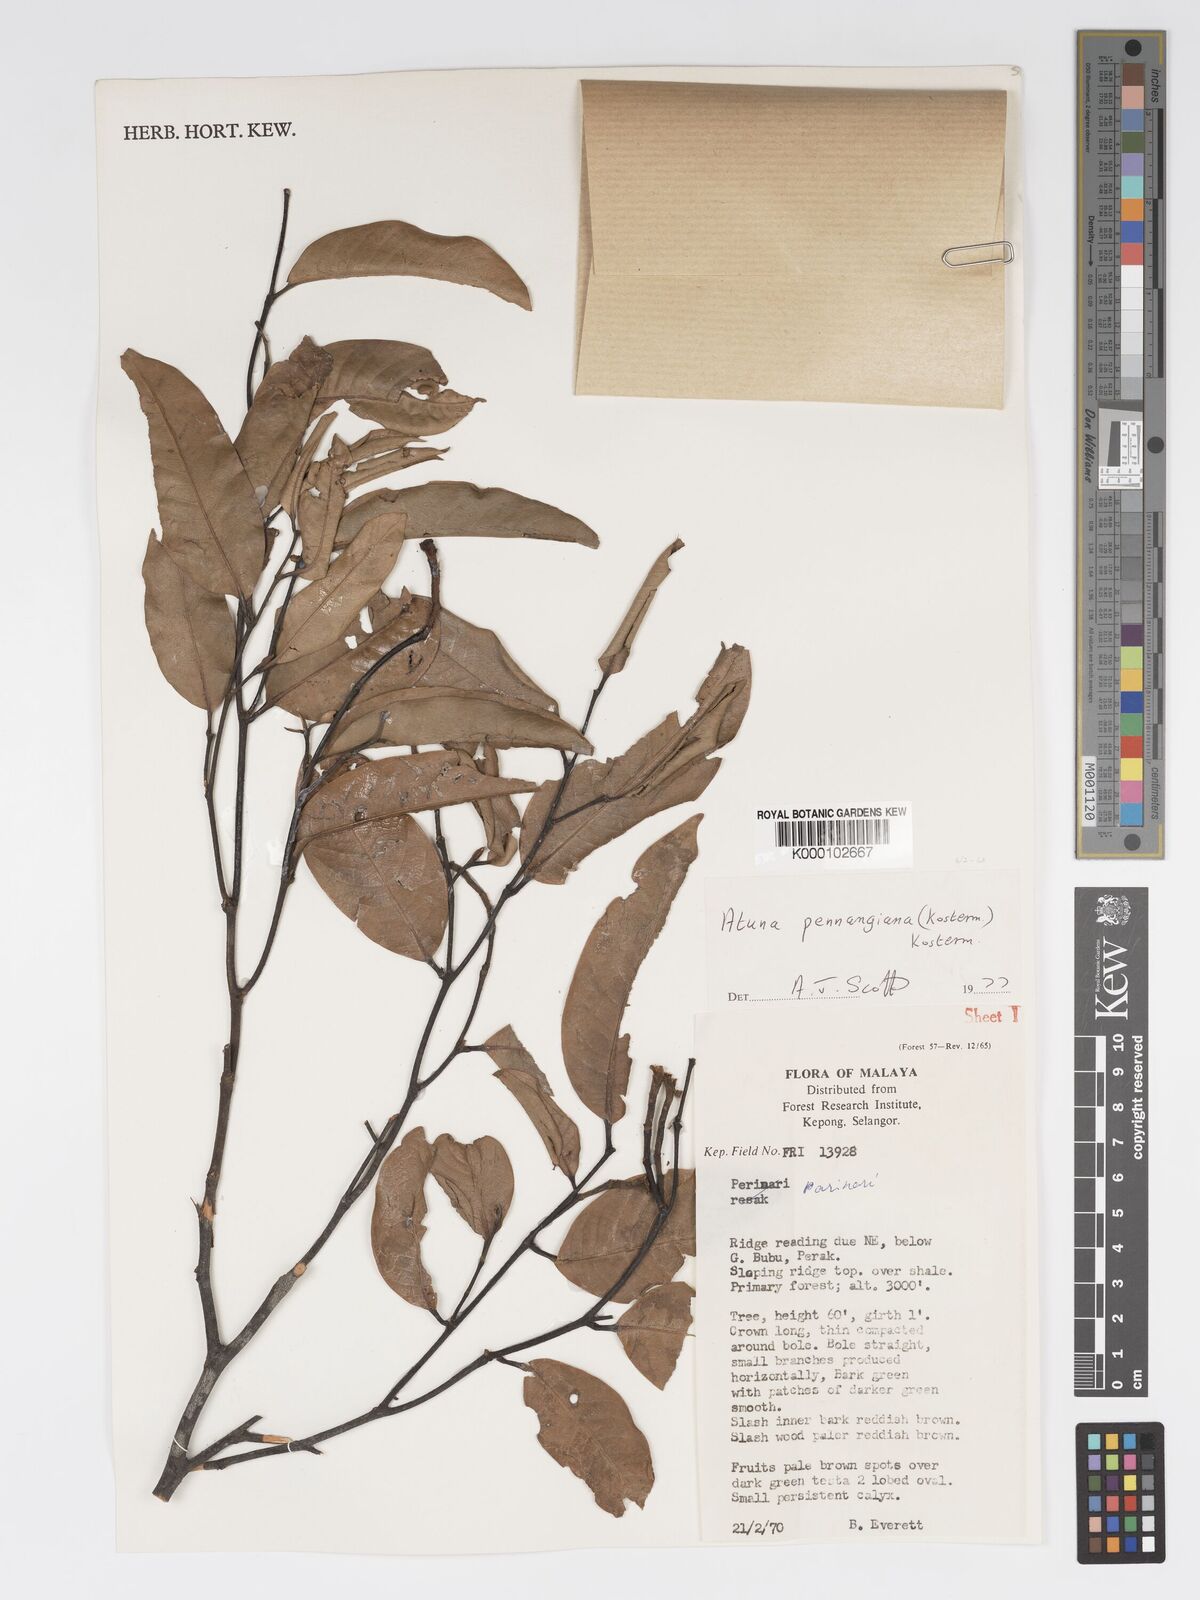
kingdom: Plantae
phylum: Tracheophyta
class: Magnoliopsida
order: Malpighiales
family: Chrysobalanaceae
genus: Atuna
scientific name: Atuna penangiana
